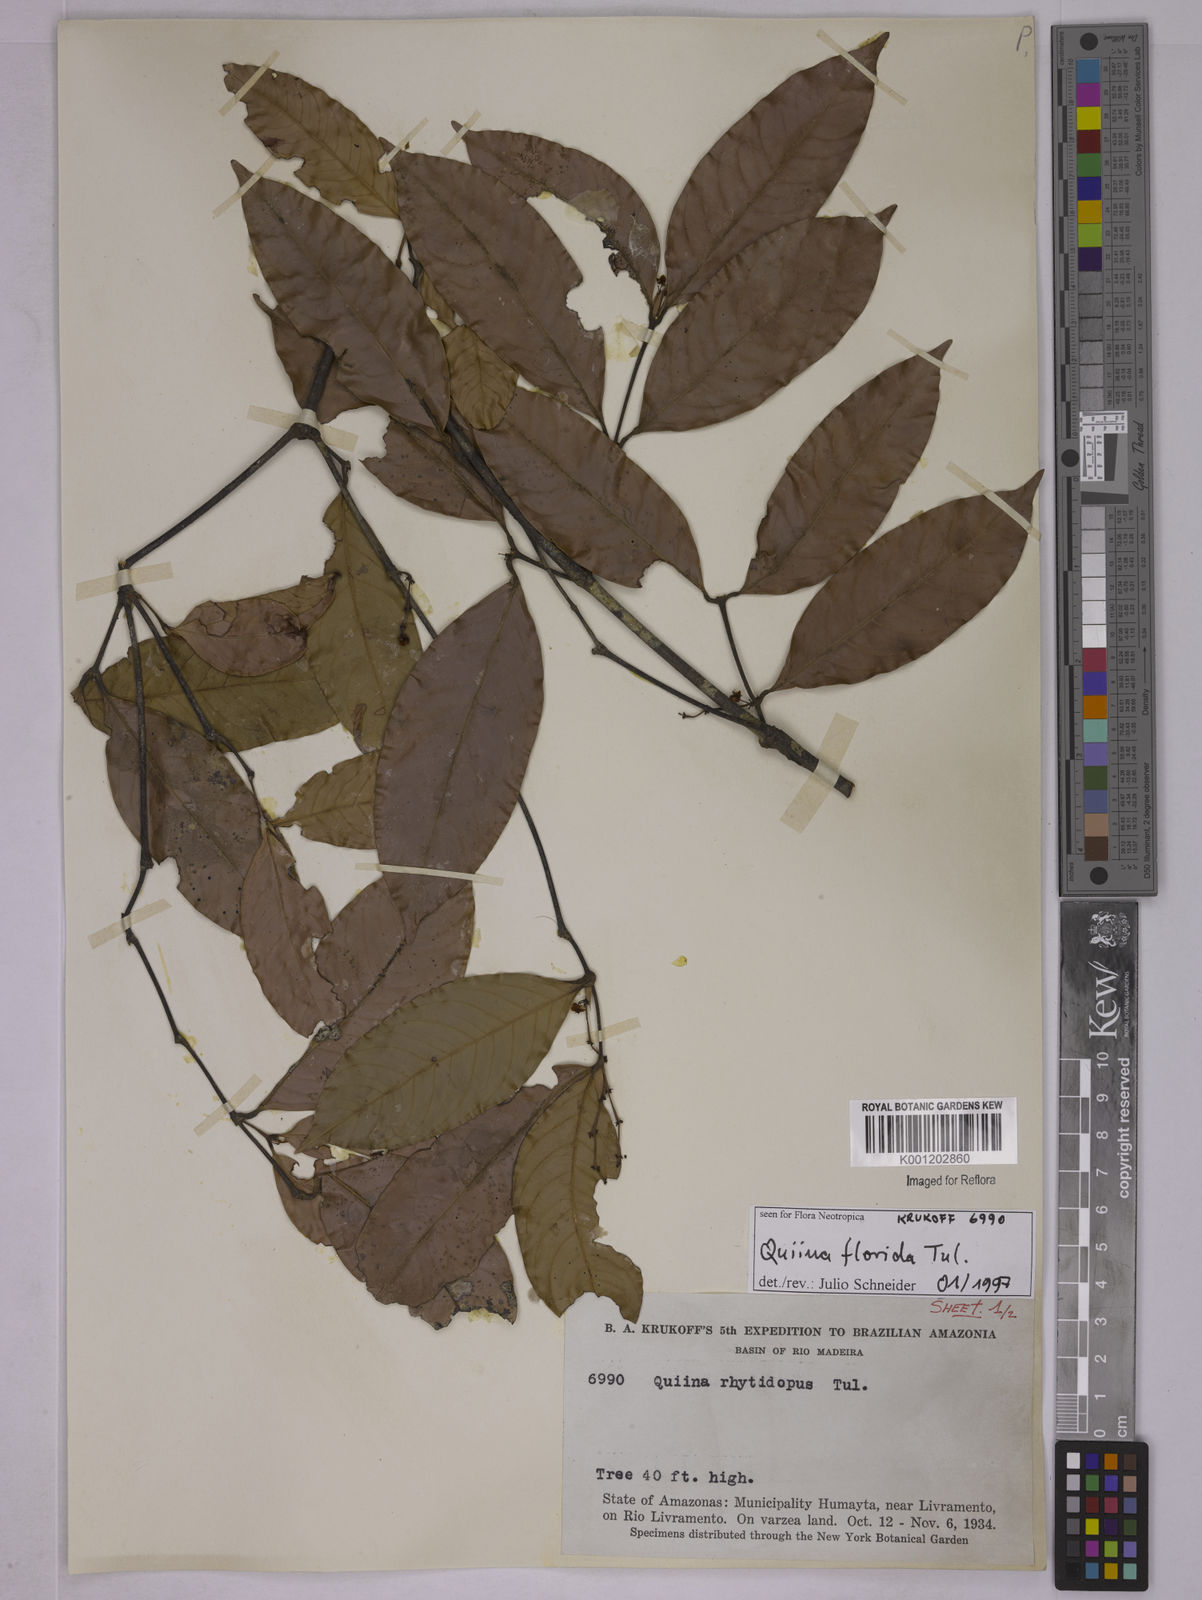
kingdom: Plantae
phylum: Tracheophyta
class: Magnoliopsida
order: Malpighiales
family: Quiinaceae
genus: Quiina
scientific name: Quiina rhytidopus
